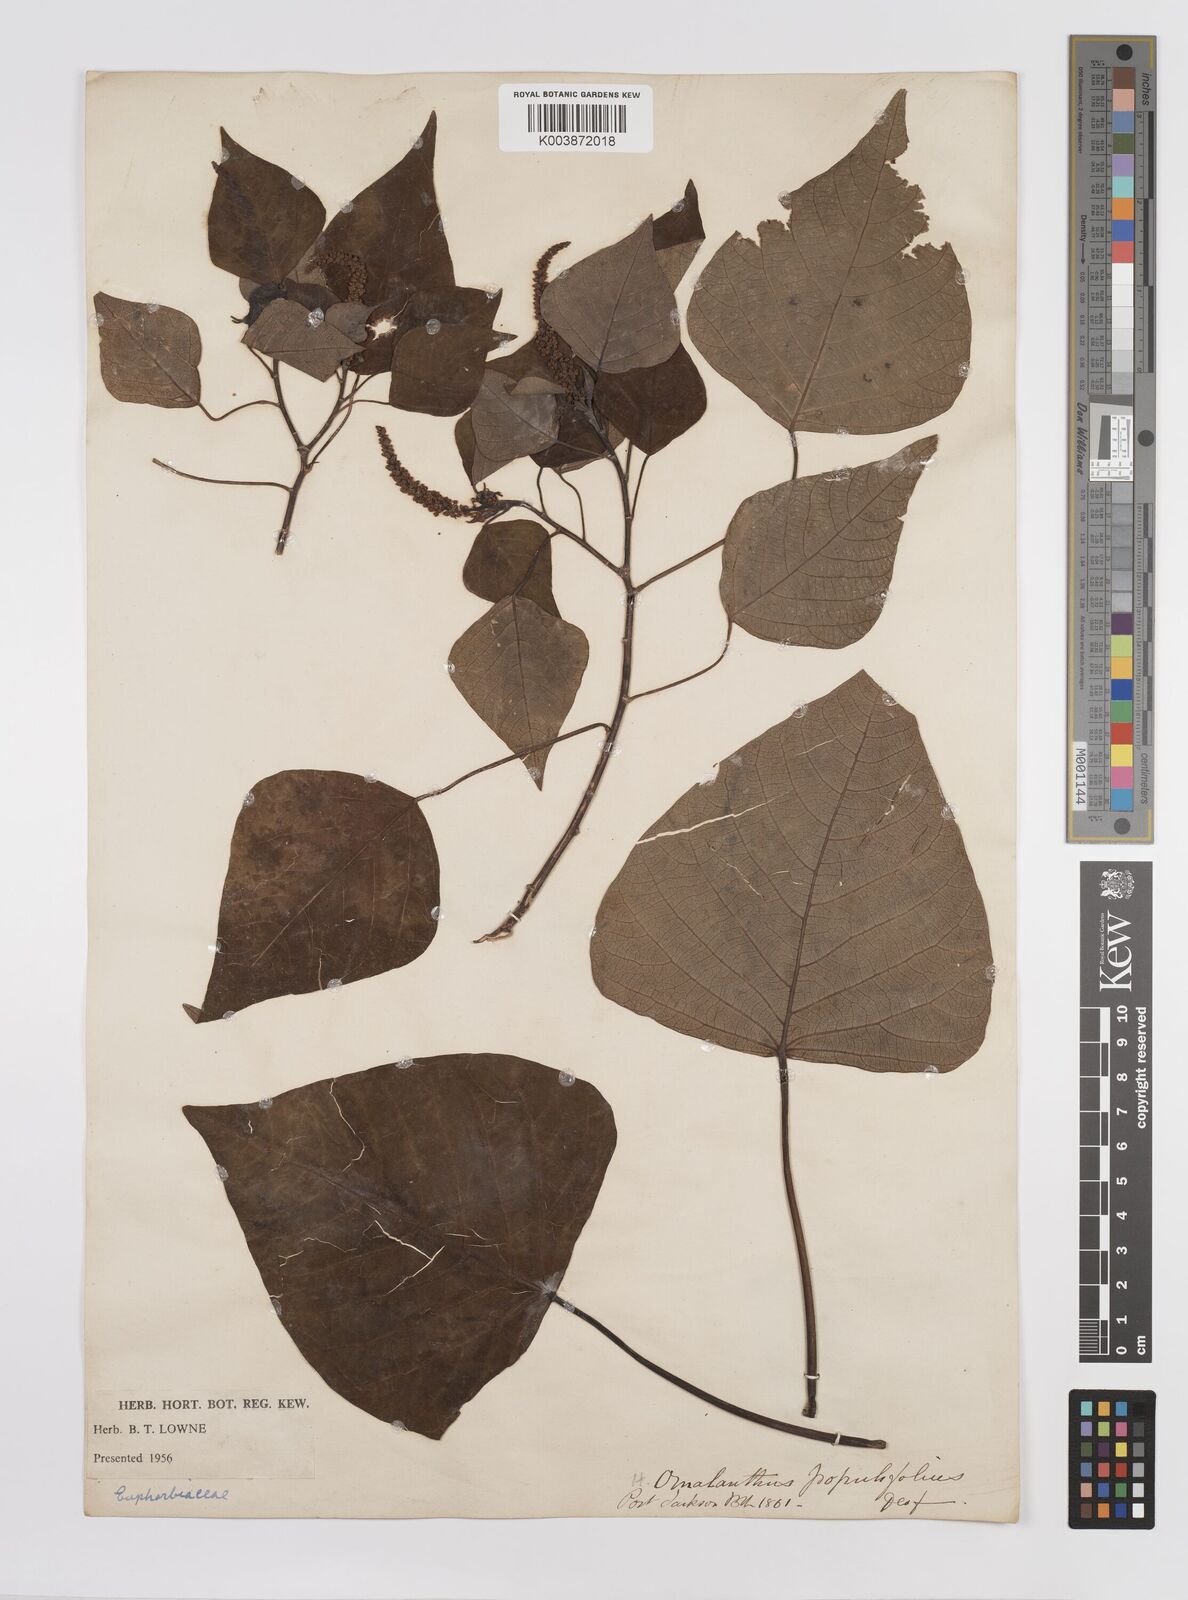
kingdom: Plantae
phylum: Tracheophyta
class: Magnoliopsida
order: Malpighiales
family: Euphorbiaceae
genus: Homalanthus
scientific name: Homalanthus populifolius
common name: Queensland poplar
